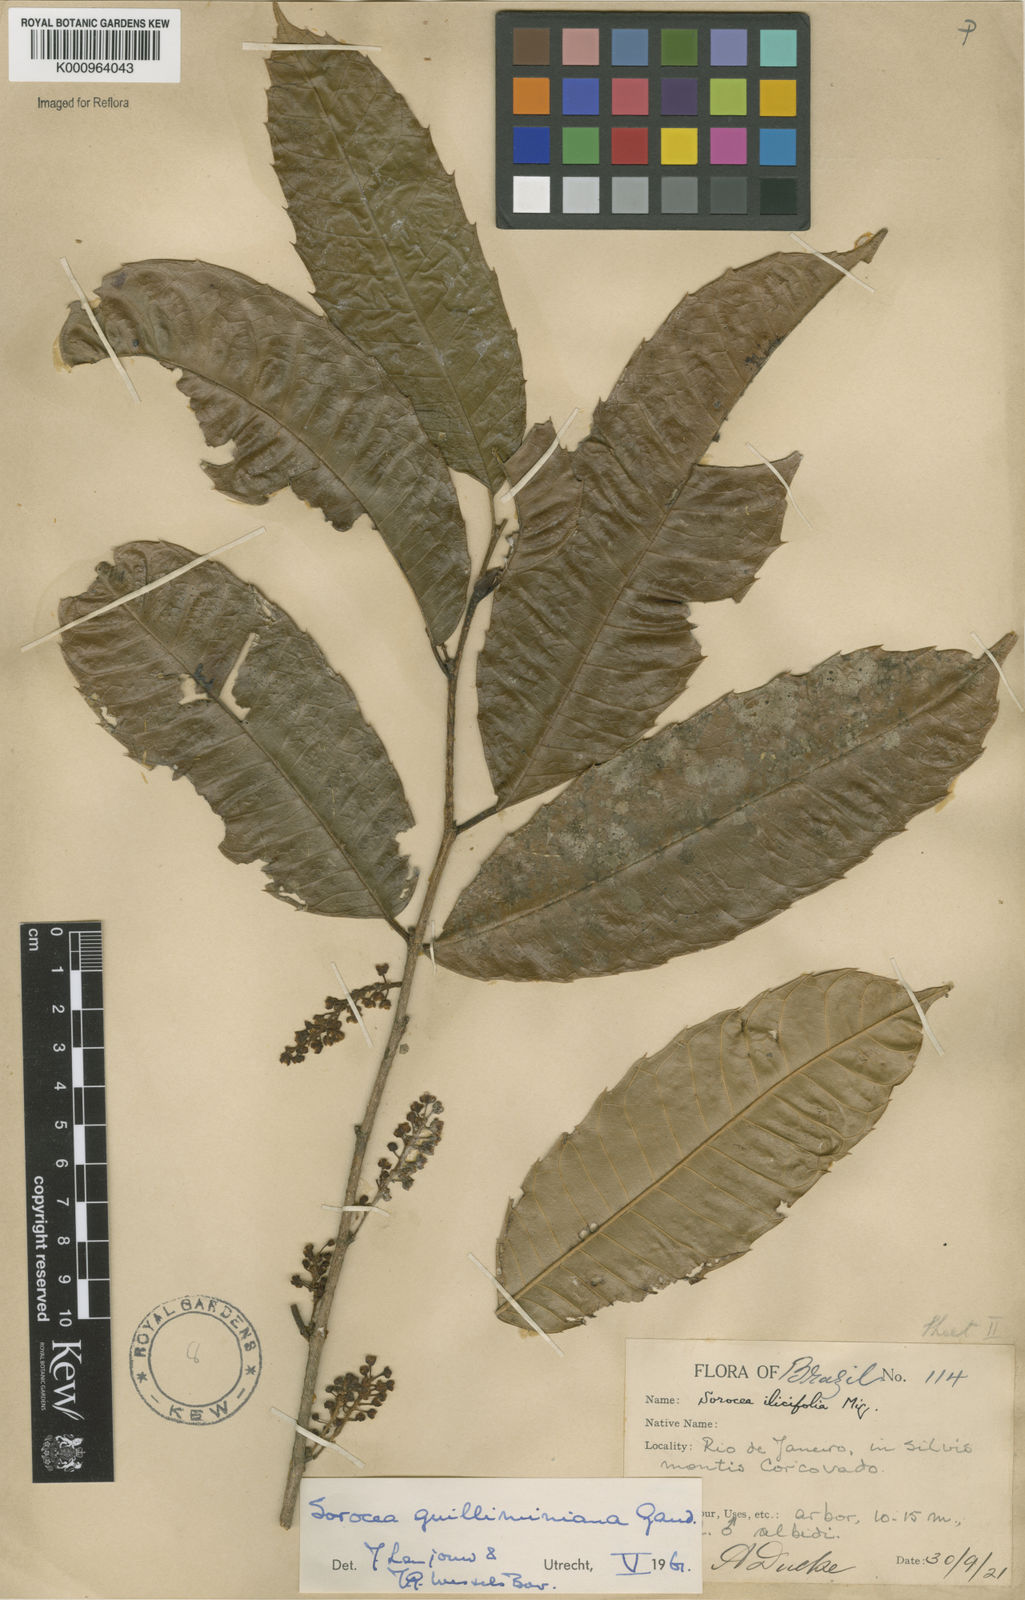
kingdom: Plantae
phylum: Tracheophyta
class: Magnoliopsida
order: Rosales
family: Moraceae
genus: Sorocea
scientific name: Sorocea guilleminiana
